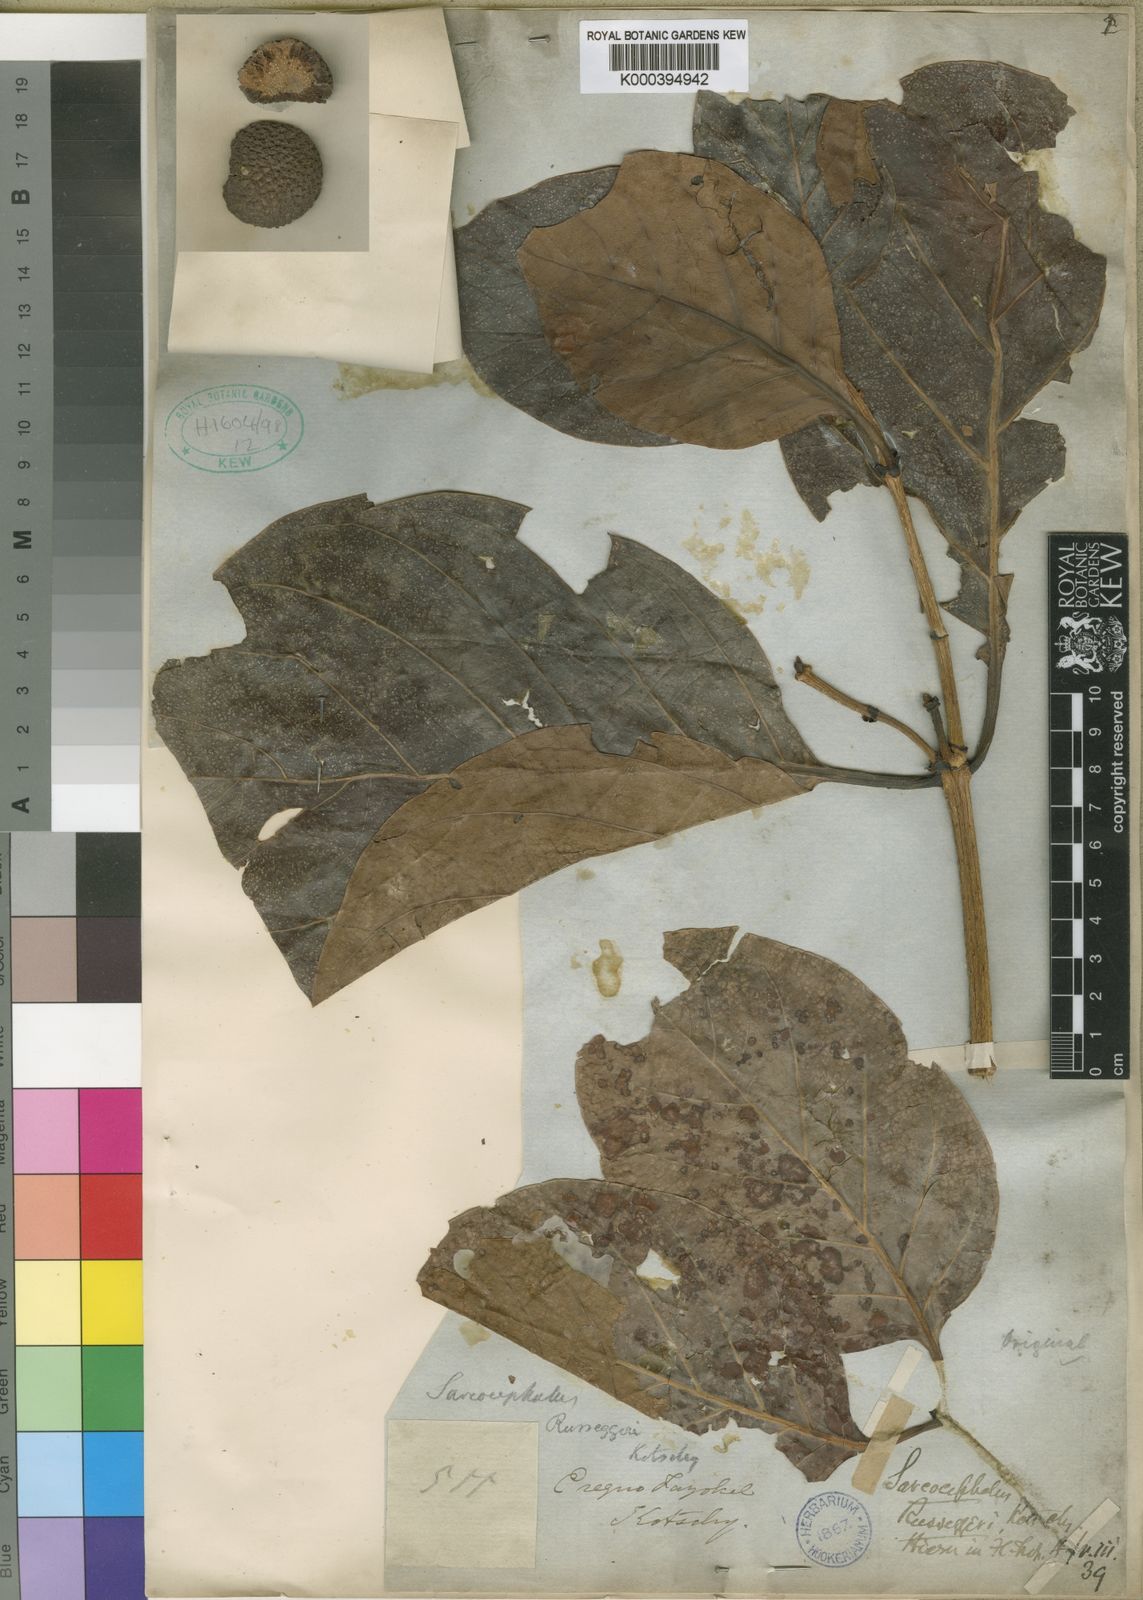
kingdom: Plantae
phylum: Tracheophyta
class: Magnoliopsida
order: Gentianales
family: Rubiaceae
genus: Nauclea
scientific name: Nauclea latifolia
